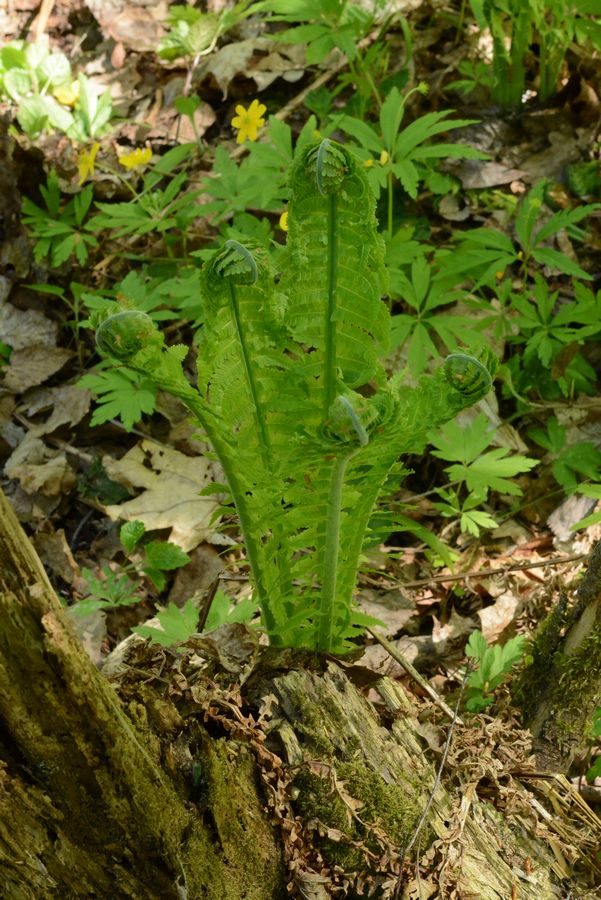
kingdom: Plantae
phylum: Tracheophyta
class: Polypodiopsida
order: Polypodiales
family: Onocleaceae
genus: Matteuccia
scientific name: Matteuccia struthiopteris
